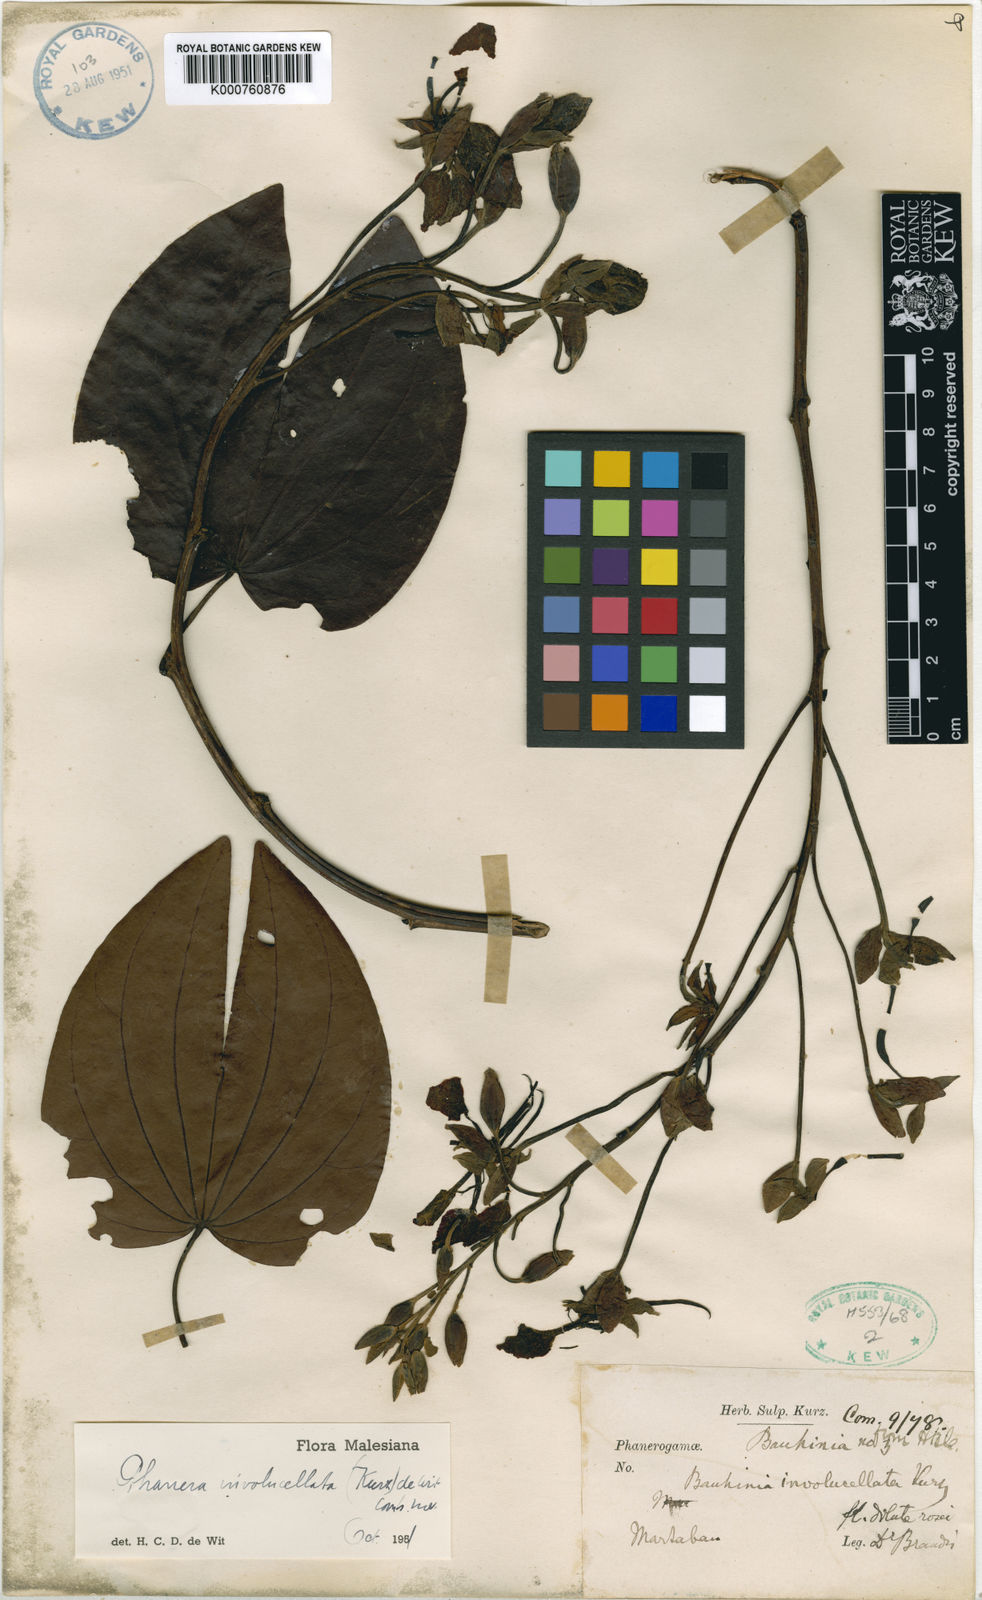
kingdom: Plantae
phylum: Tracheophyta
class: Magnoliopsida
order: Fabales
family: Fabaceae
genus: Phanera
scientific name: Phanera involucellata
